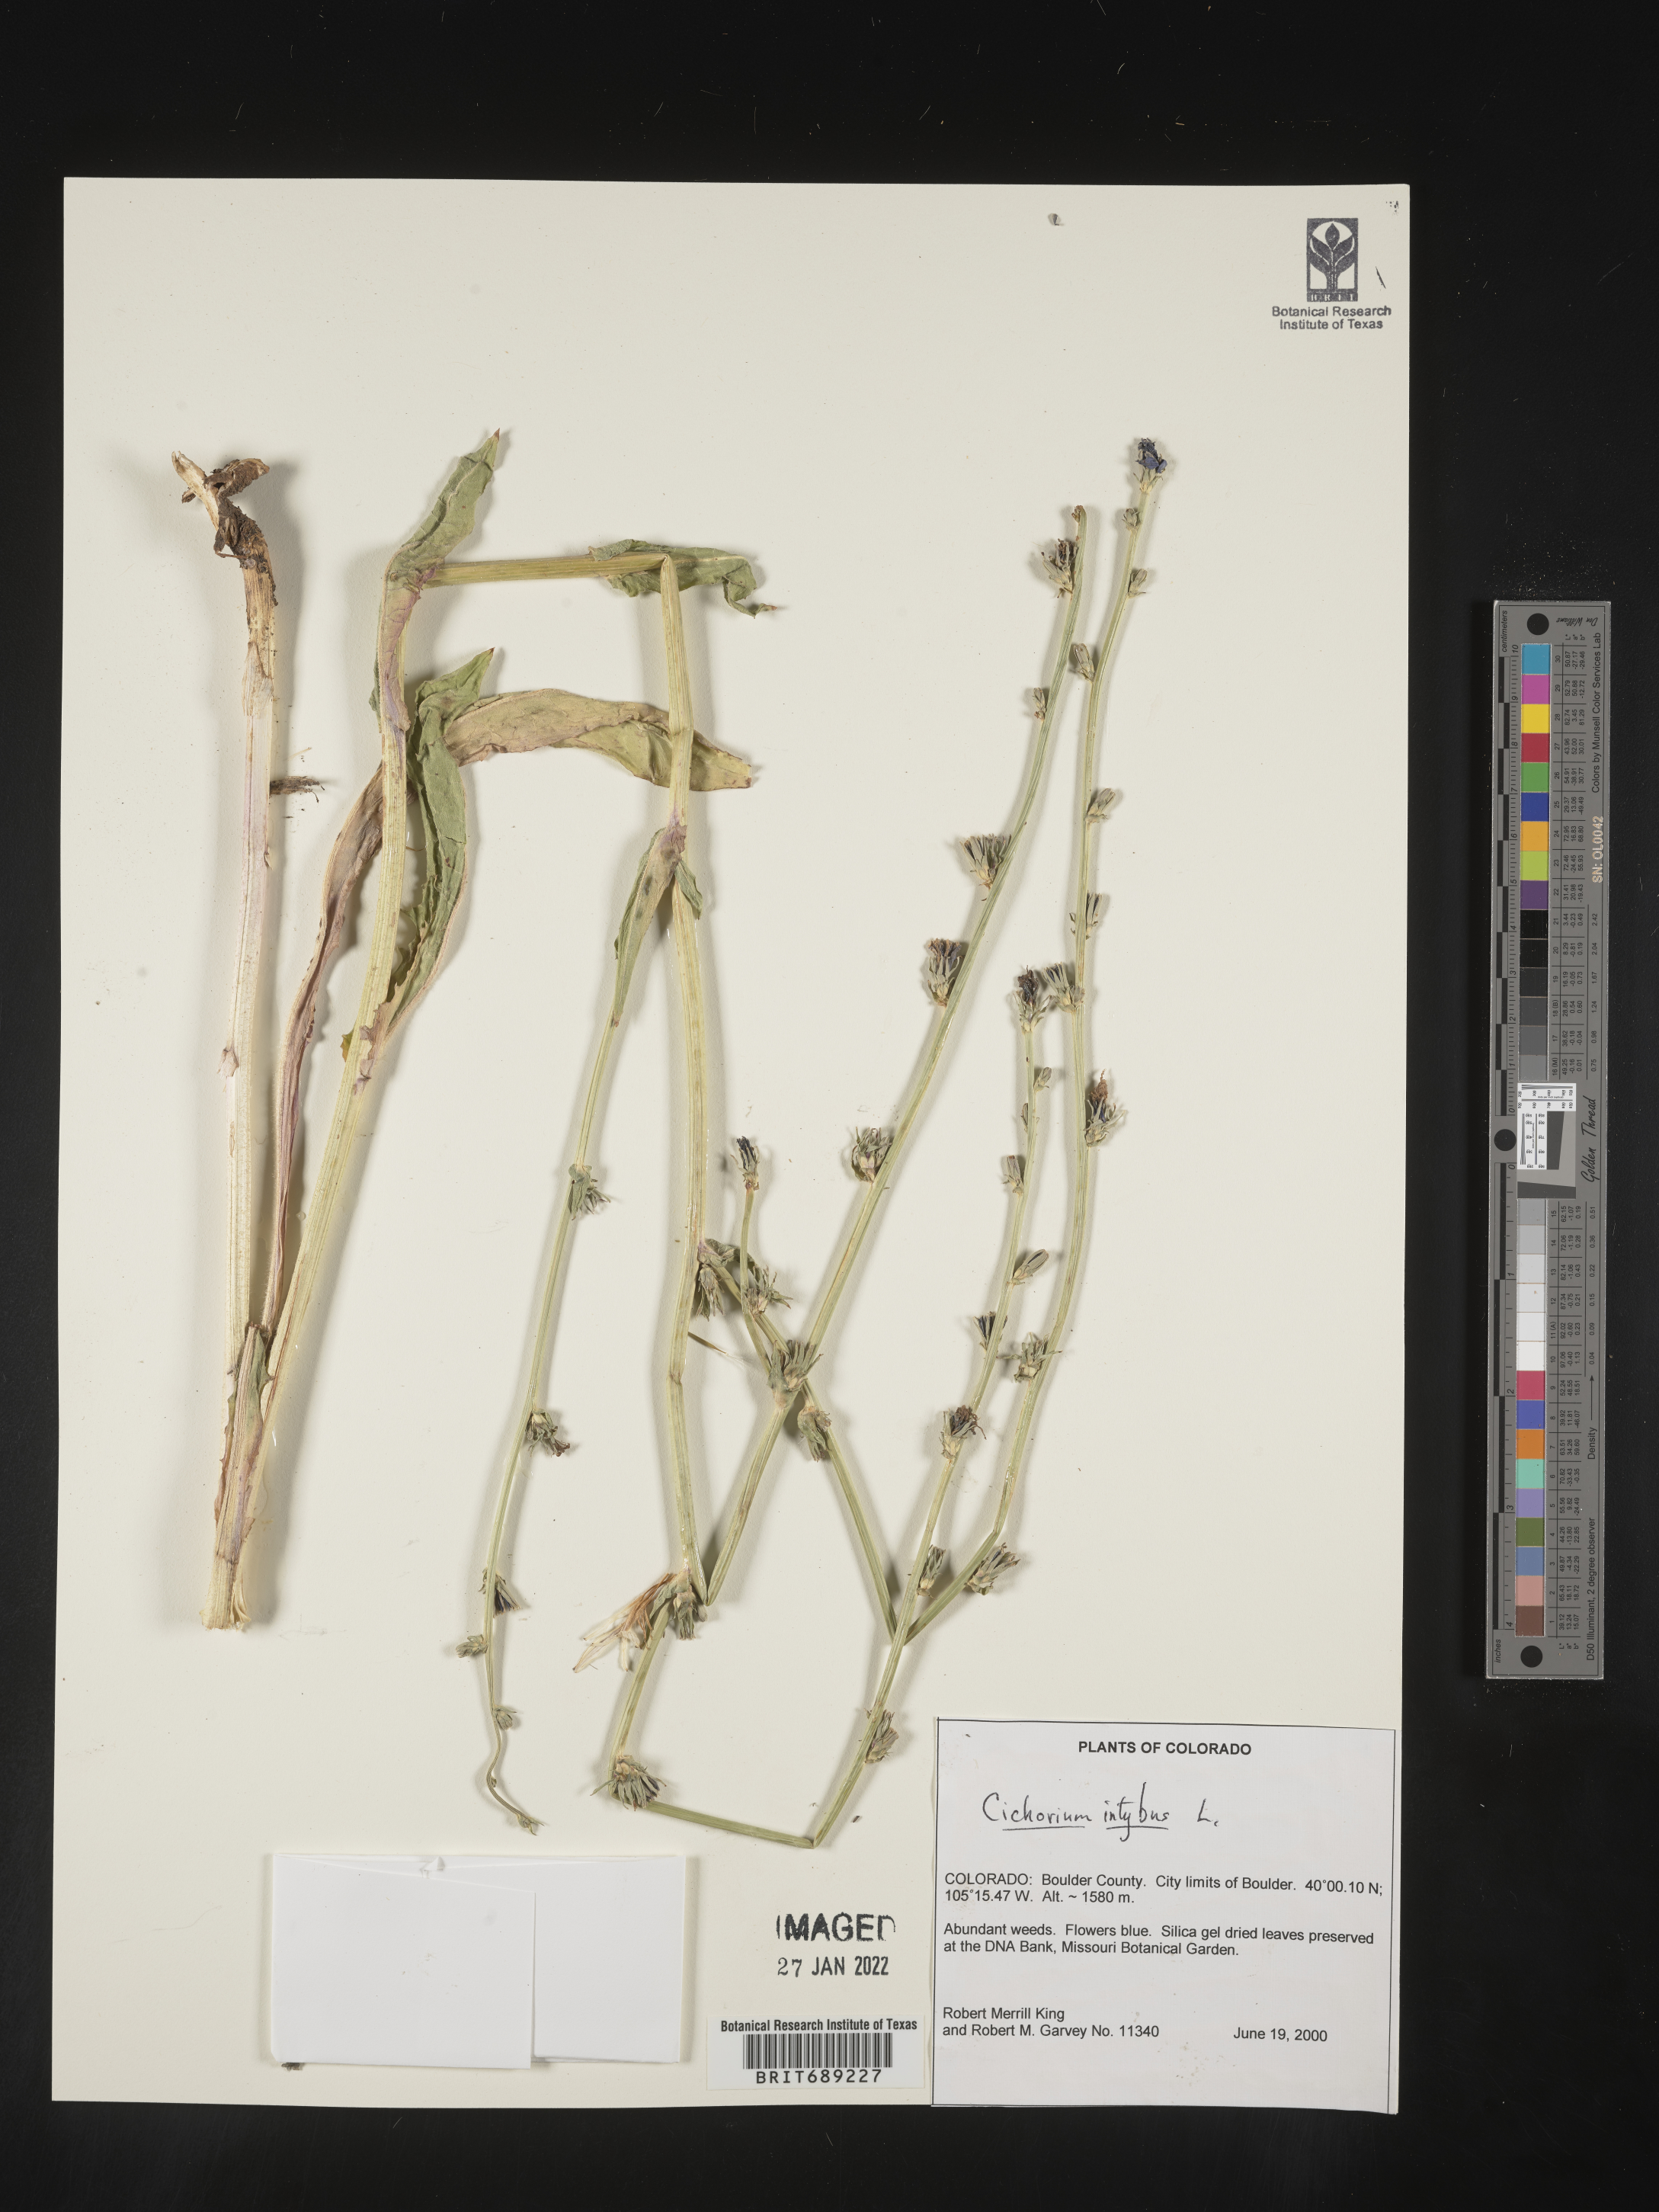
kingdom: Plantae
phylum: Tracheophyta
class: Magnoliopsida
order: Asterales
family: Asteraceae
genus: Cichorium
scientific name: Cichorium intybus
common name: Chicory
